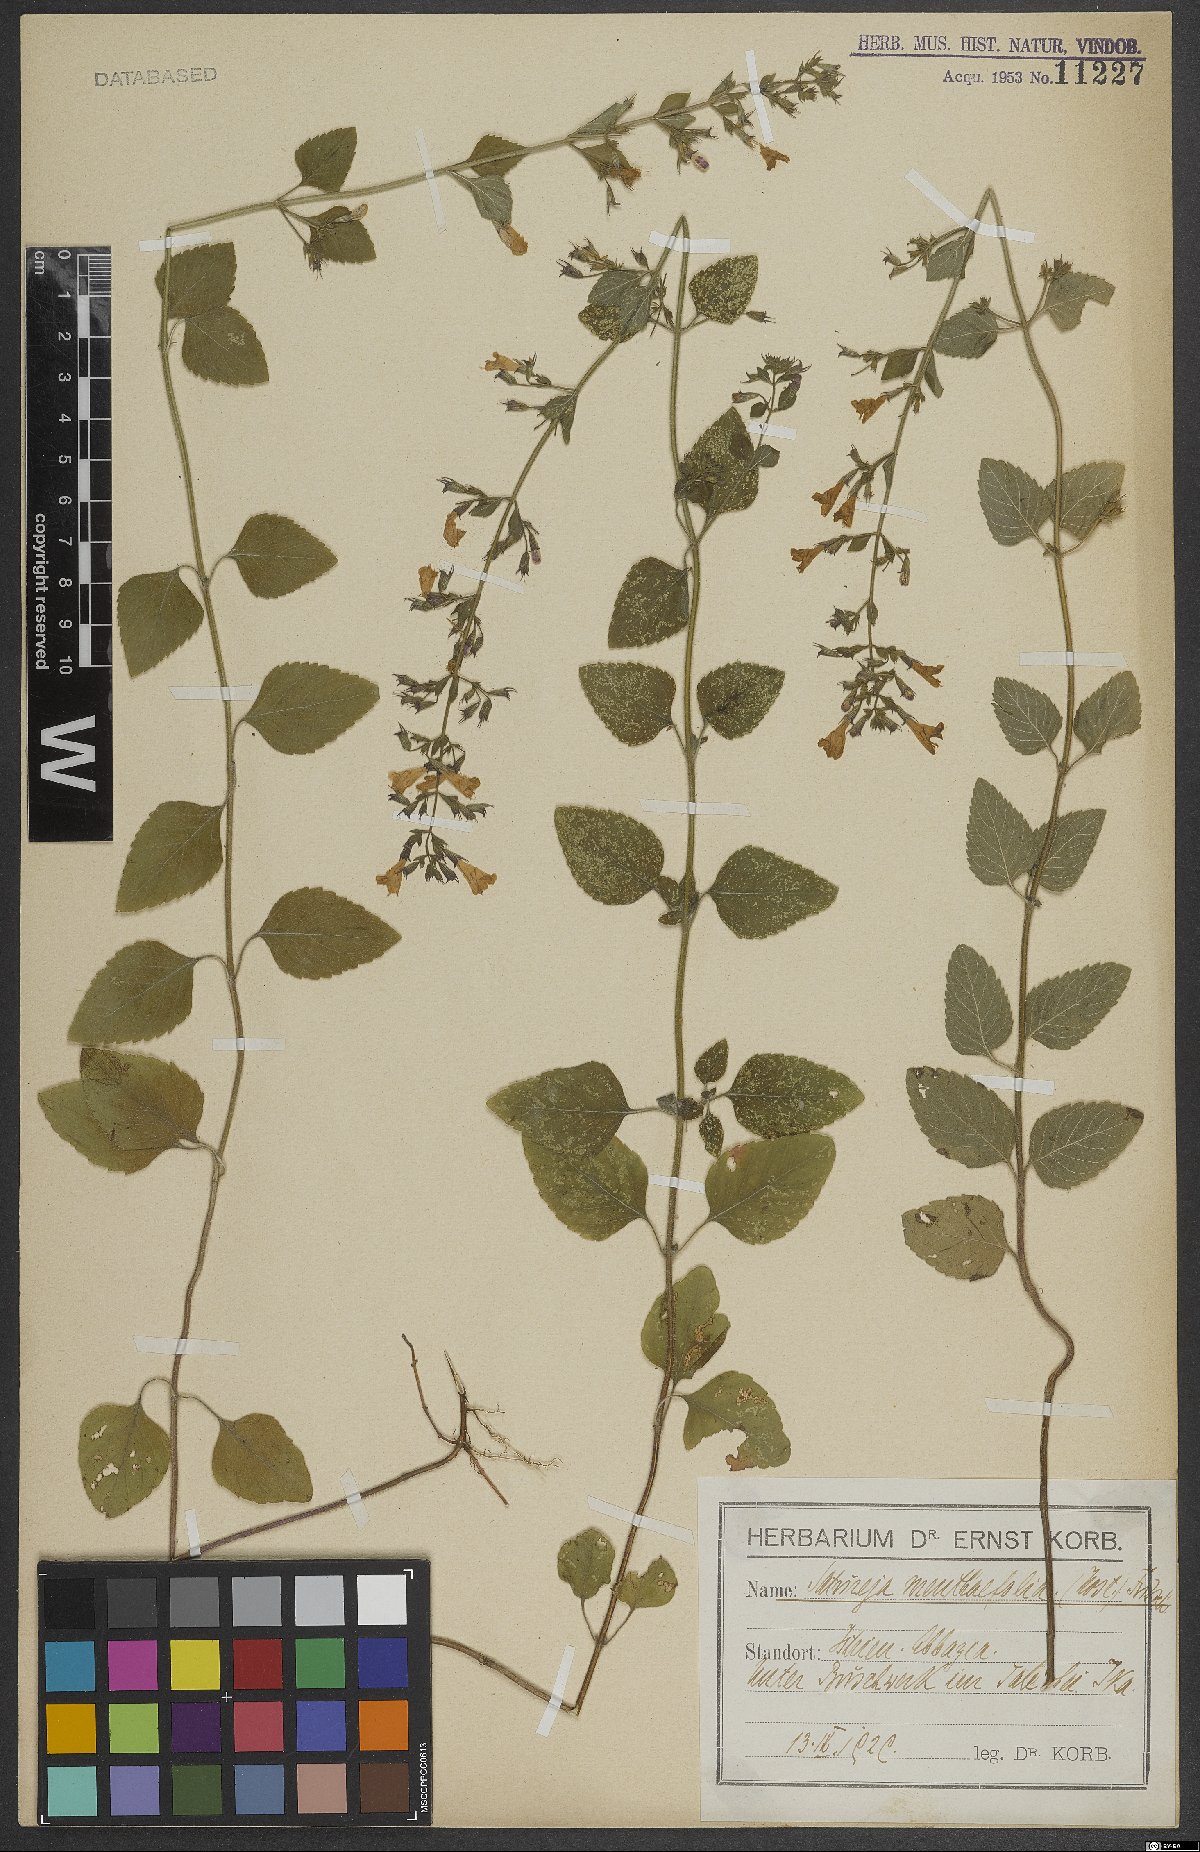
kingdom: Plantae
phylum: Tracheophyta
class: Magnoliopsida
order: Lamiales
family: Lamiaceae
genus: Clinopodium
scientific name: Clinopodium menthifolium
